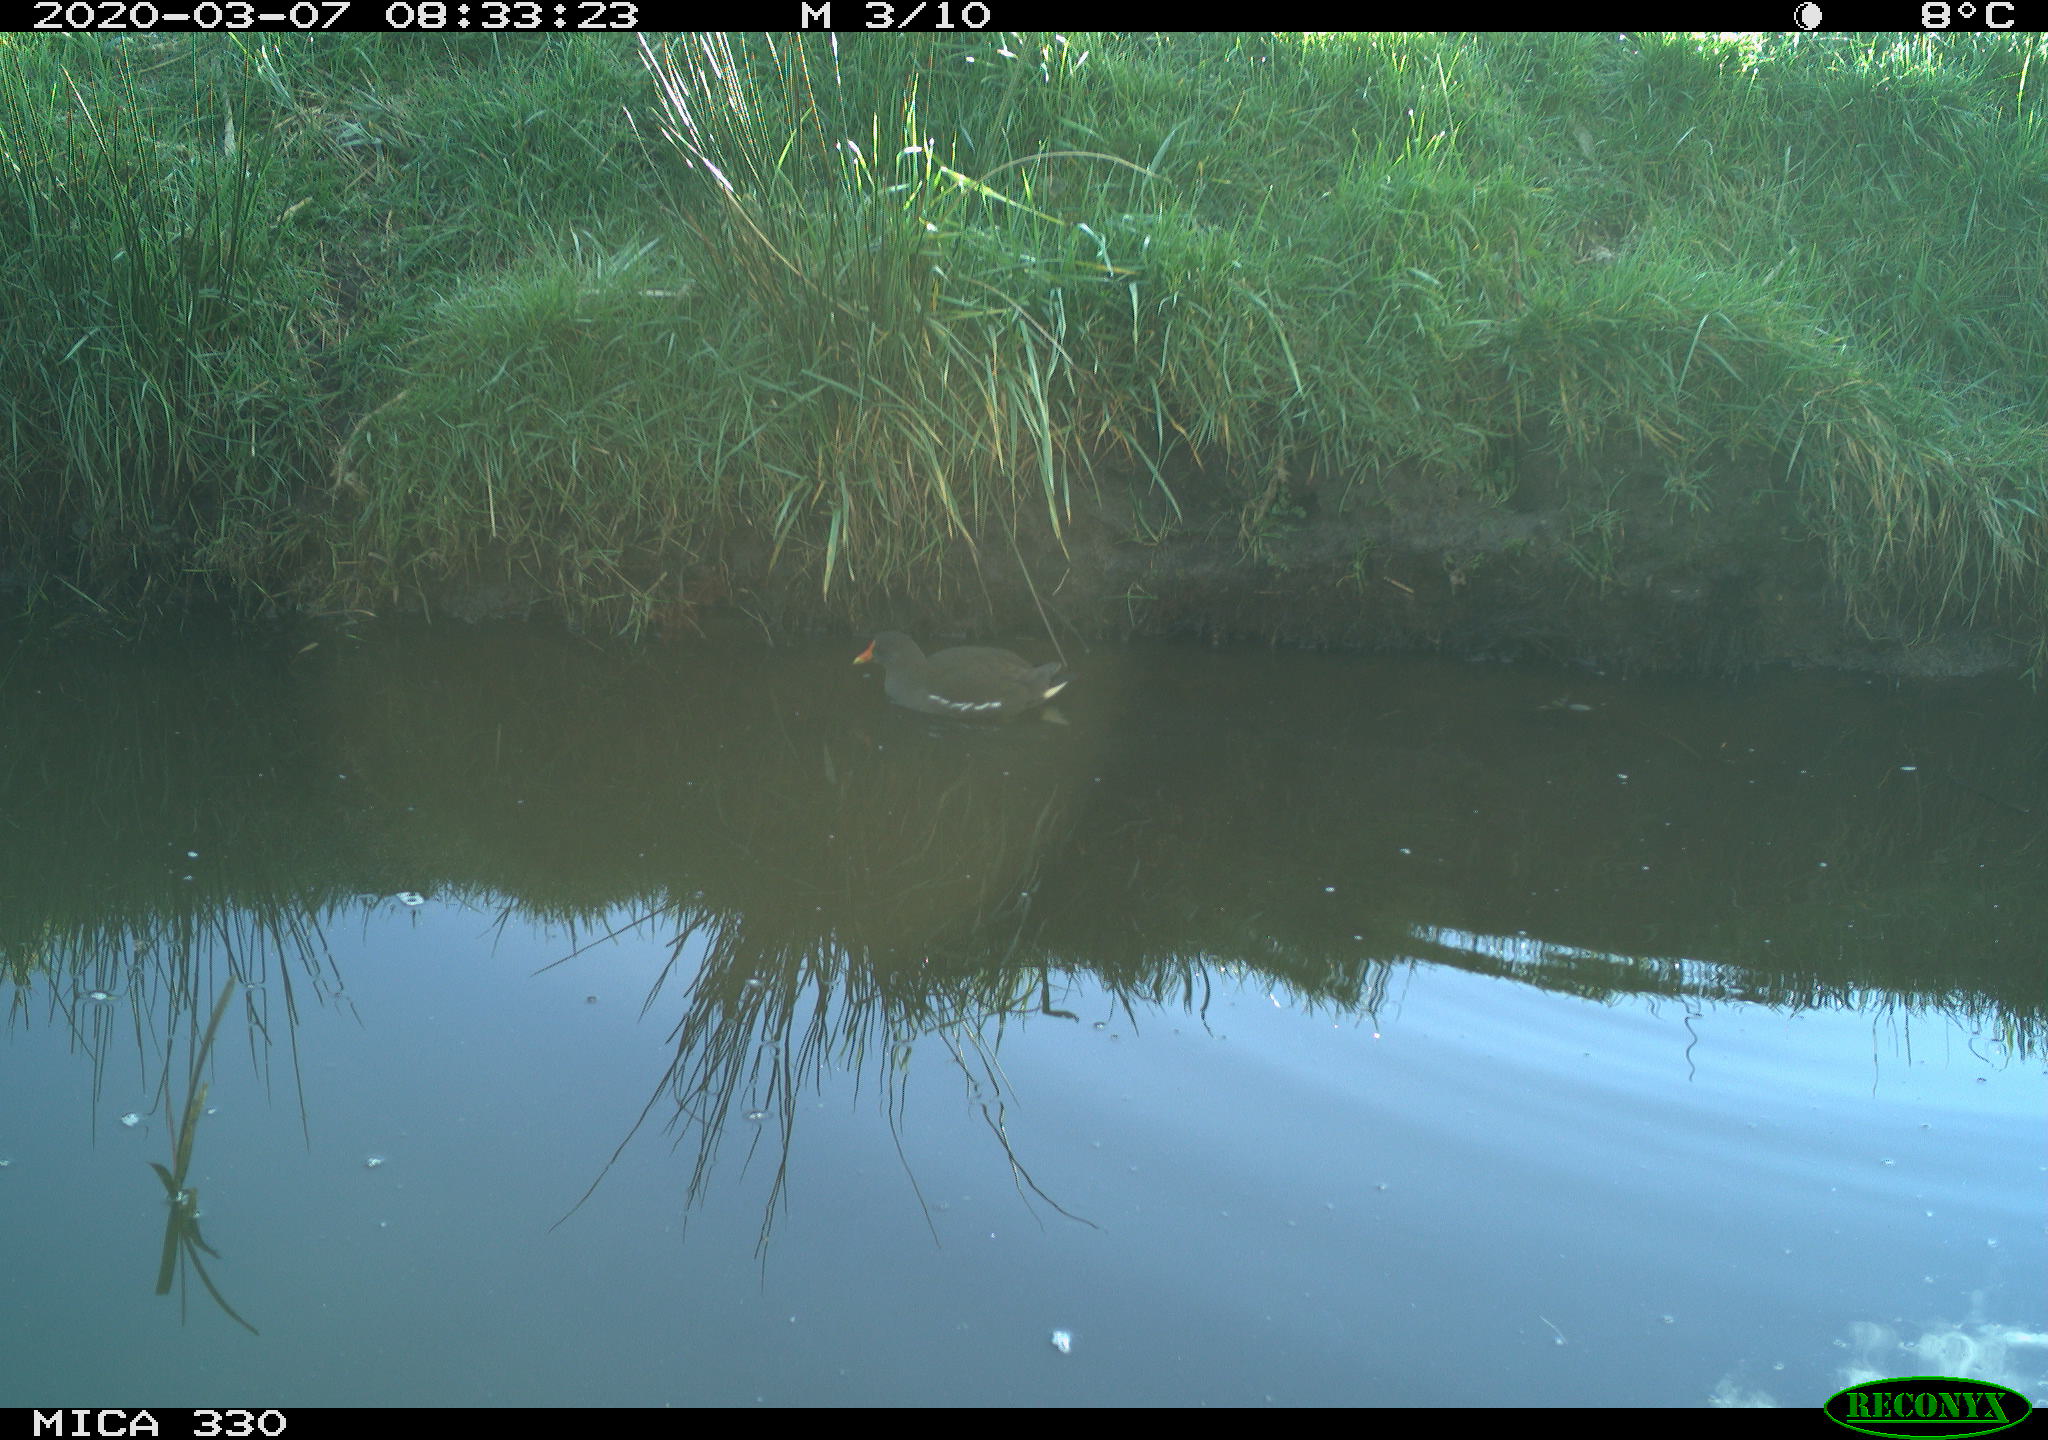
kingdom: Animalia
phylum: Chordata
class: Aves
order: Gruiformes
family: Rallidae
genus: Gallinula
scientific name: Gallinula chloropus
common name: Common moorhen
